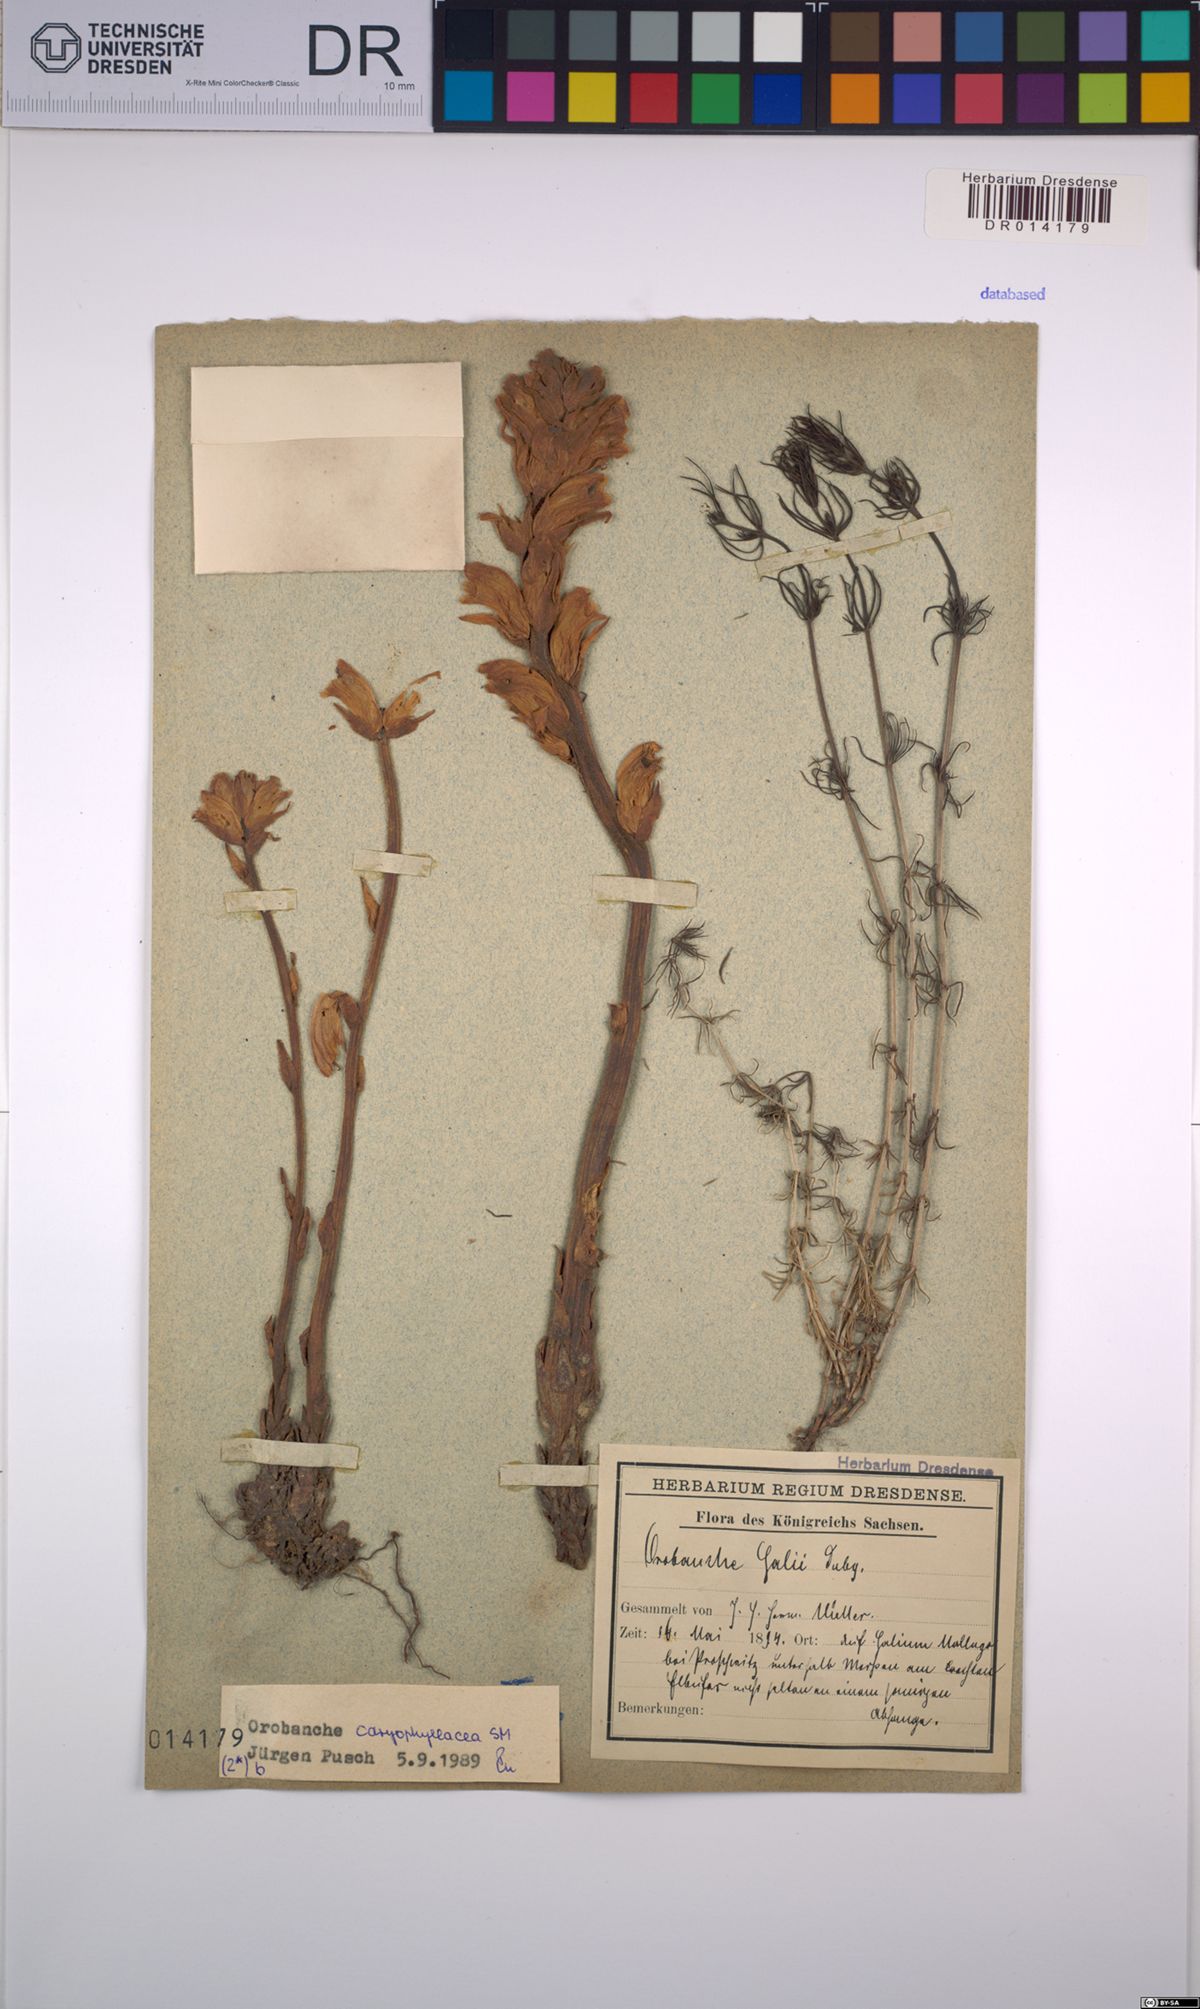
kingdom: Plantae
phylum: Tracheophyta
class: Magnoliopsida
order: Lamiales
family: Orobanchaceae
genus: Orobanche
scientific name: Orobanche caryophyllacea
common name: Bedstraw broomrape
